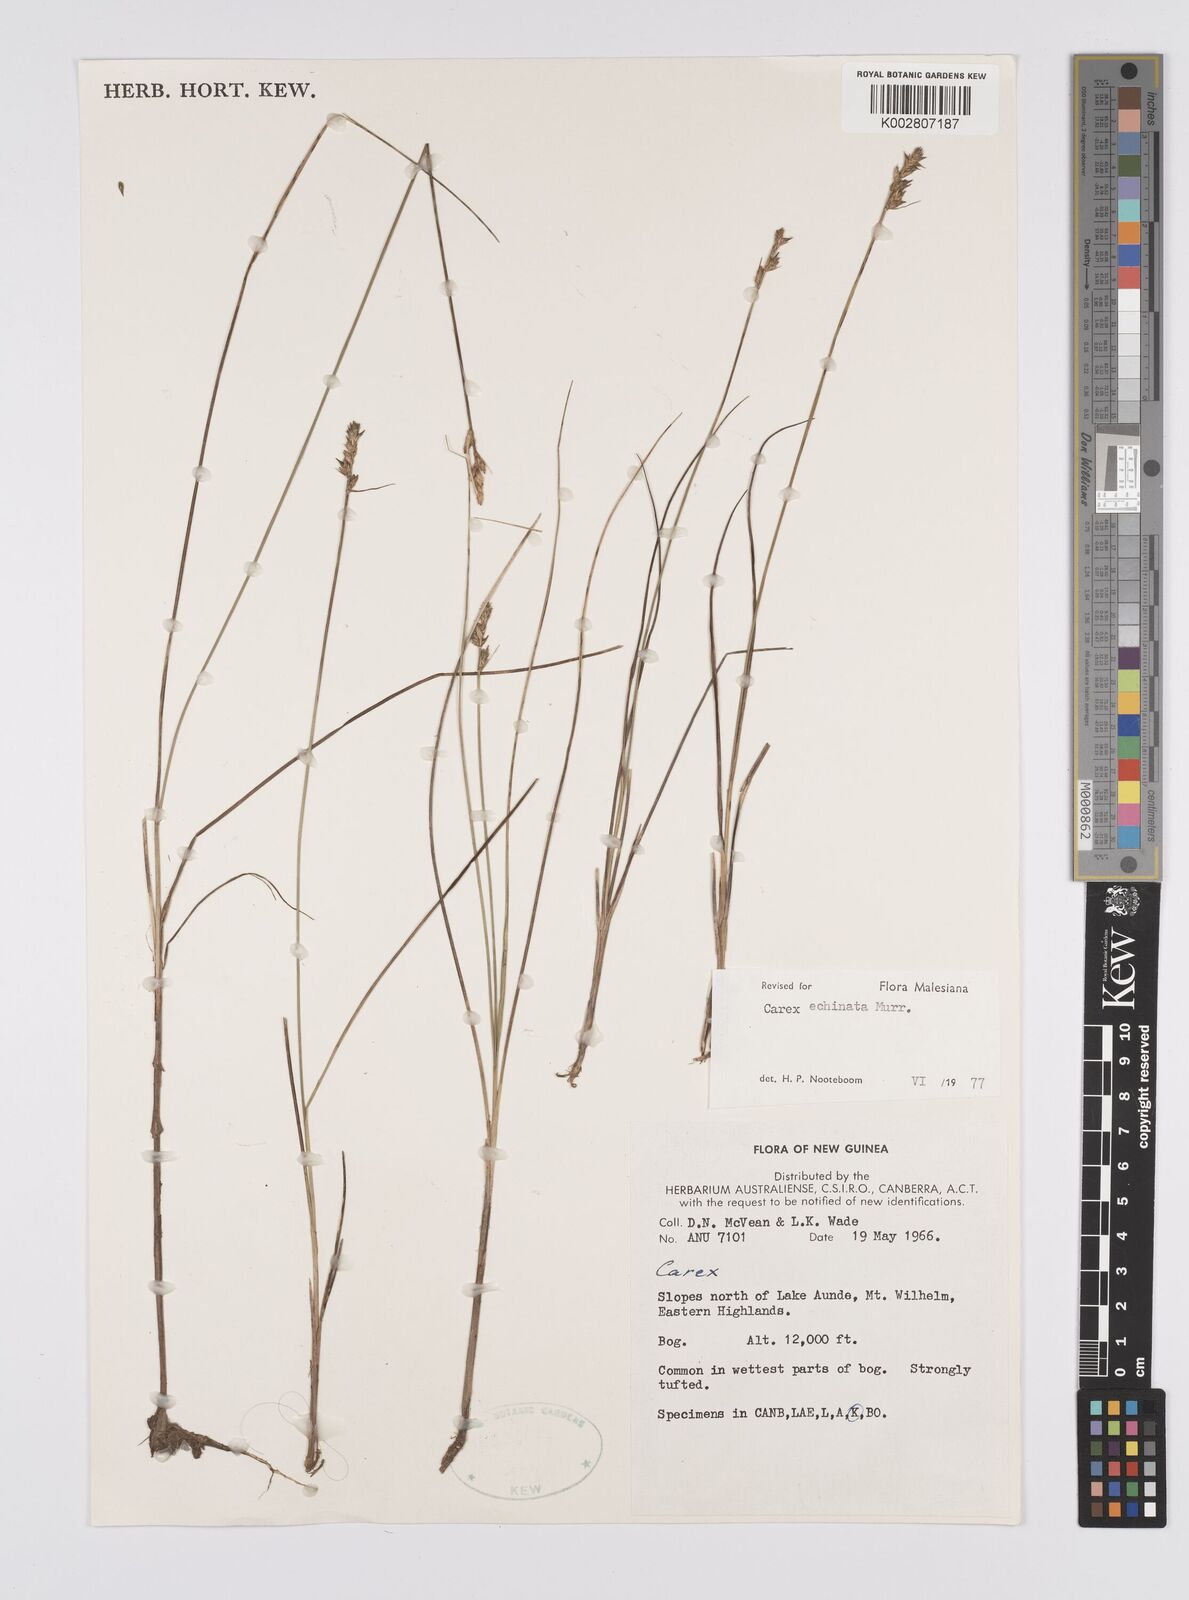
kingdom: Plantae
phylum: Tracheophyta
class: Liliopsida
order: Poales
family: Cyperaceae
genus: Carex
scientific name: Carex echinata
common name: Star sedge
